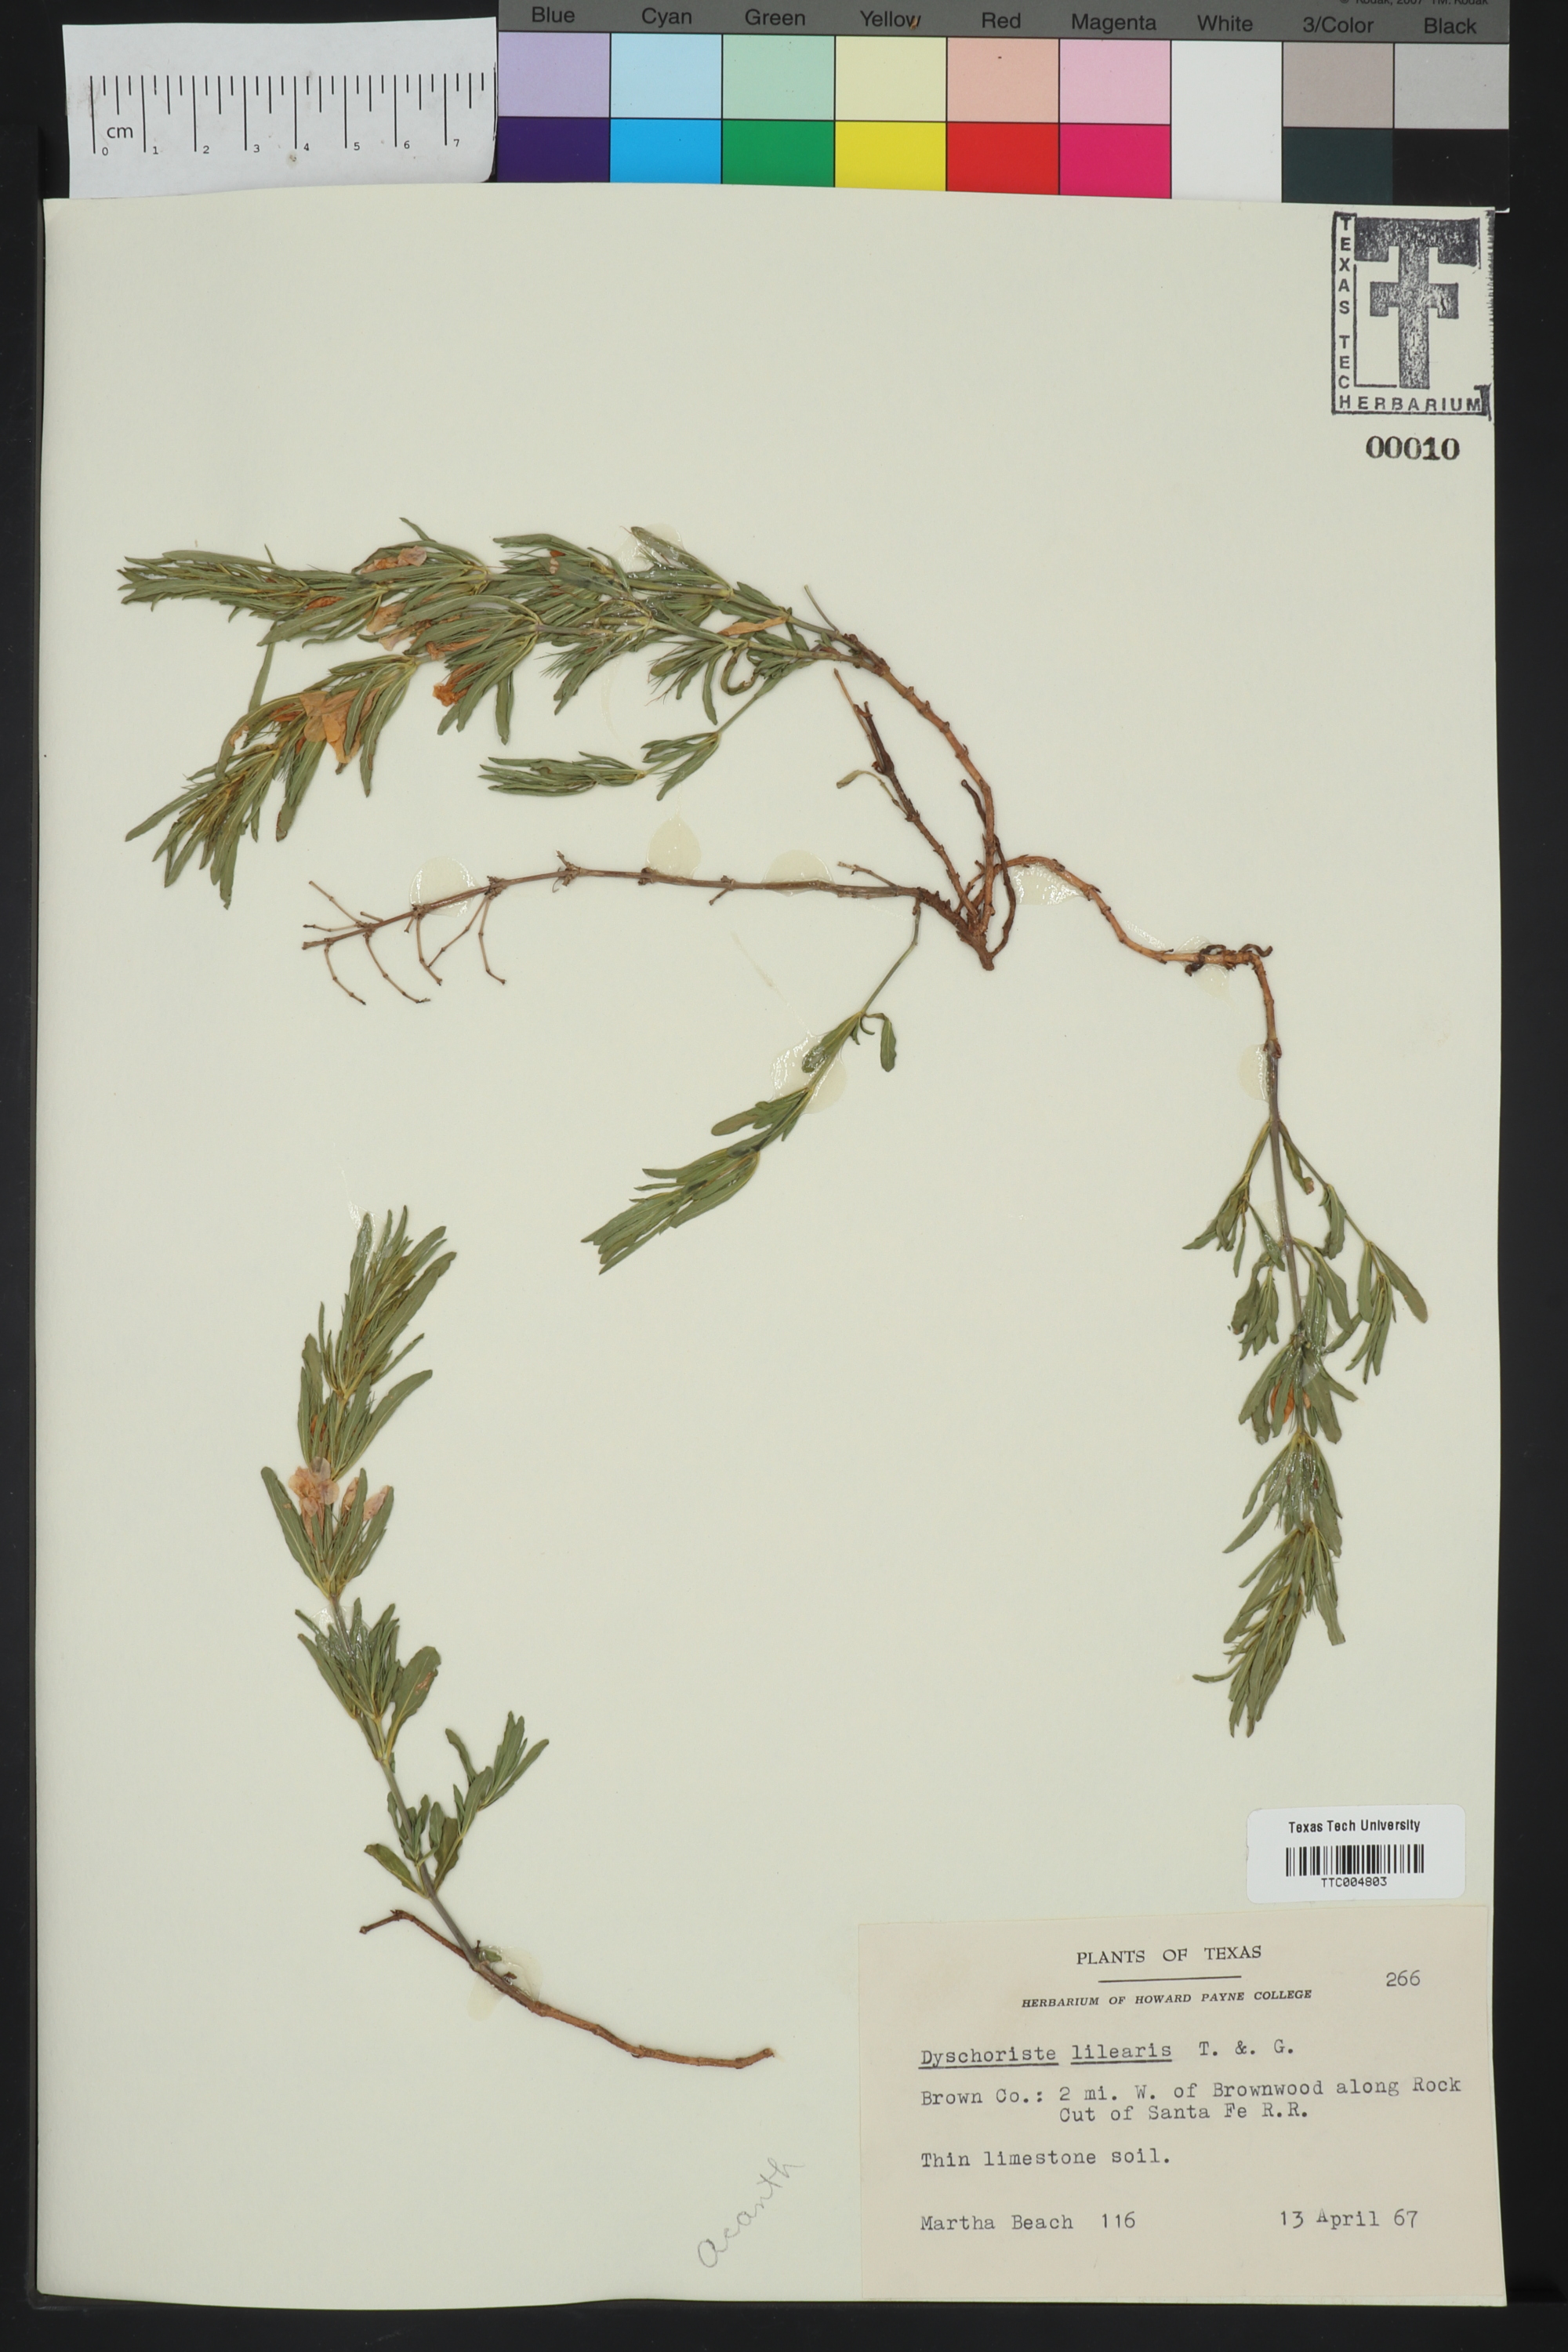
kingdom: Plantae
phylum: Tracheophyta
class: Magnoliopsida
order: Lamiales
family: Acanthaceae
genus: Dyschoriste
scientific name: Dyschoriste linearis
